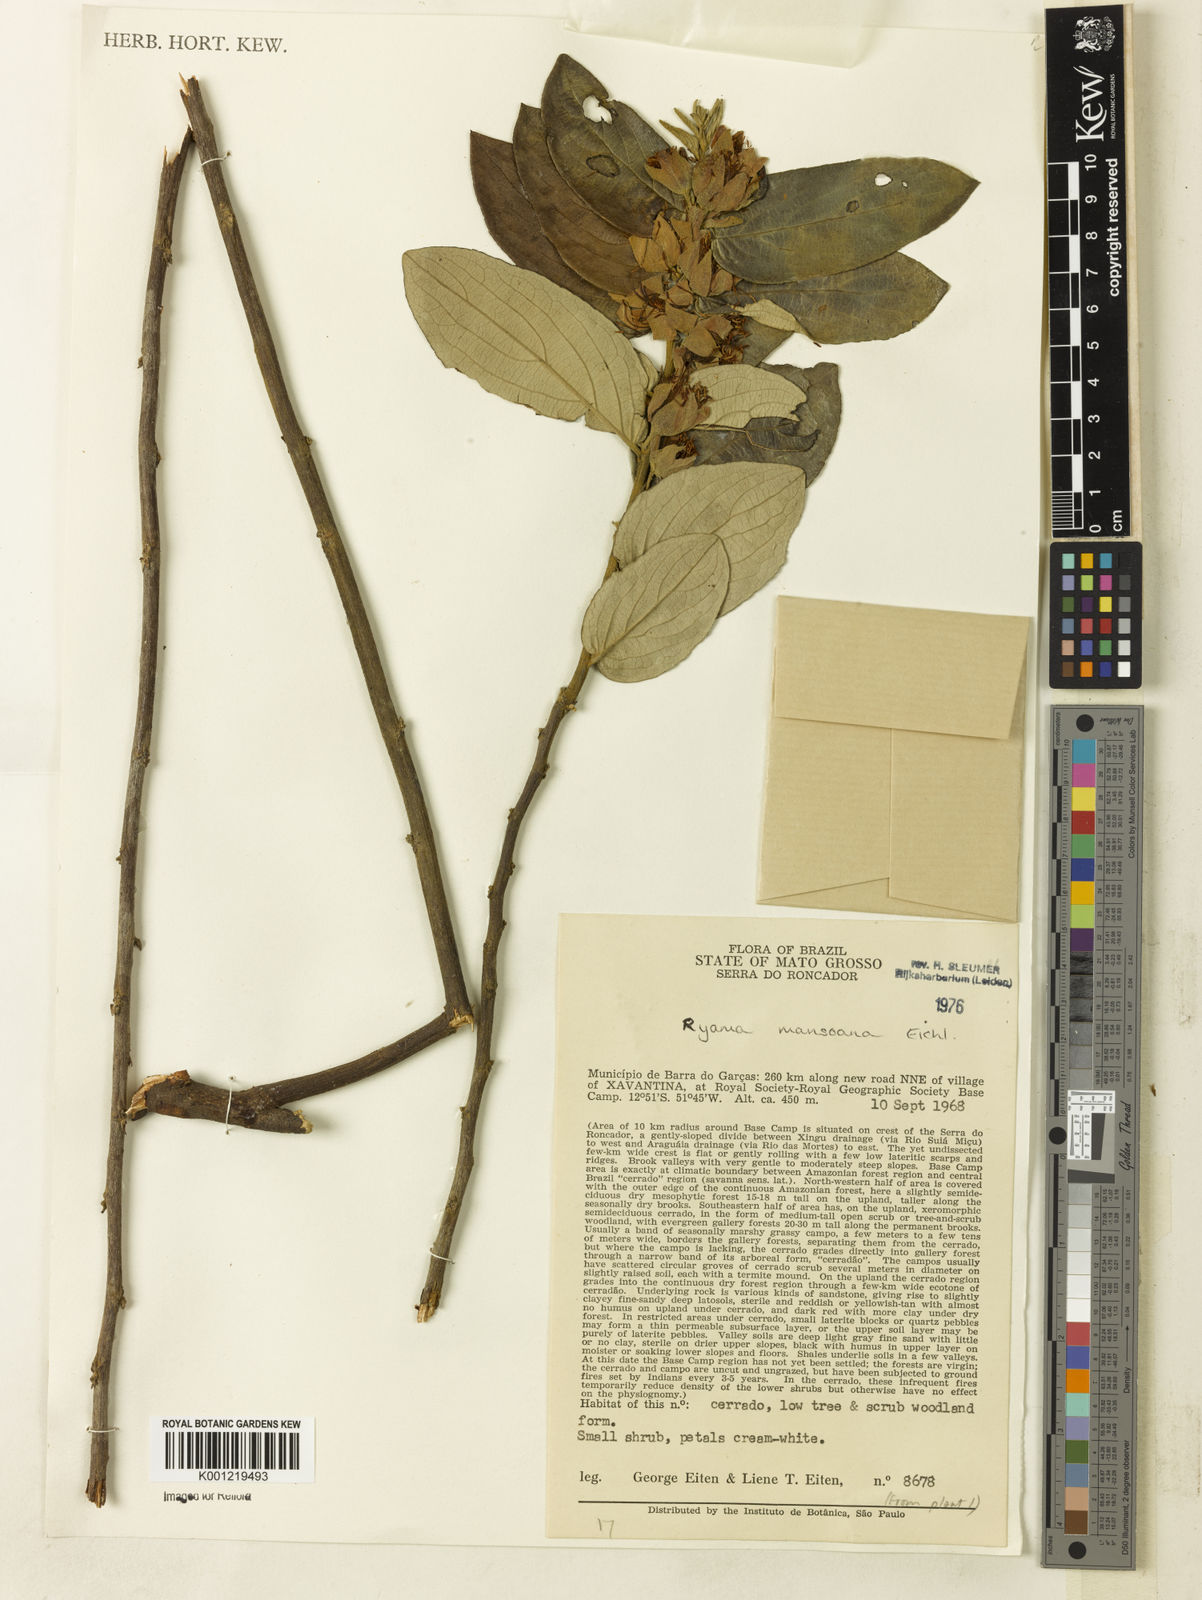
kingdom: Plantae
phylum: Tracheophyta
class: Magnoliopsida
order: Malpighiales
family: Salicaceae
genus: Ryania
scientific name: Ryania mansoana
